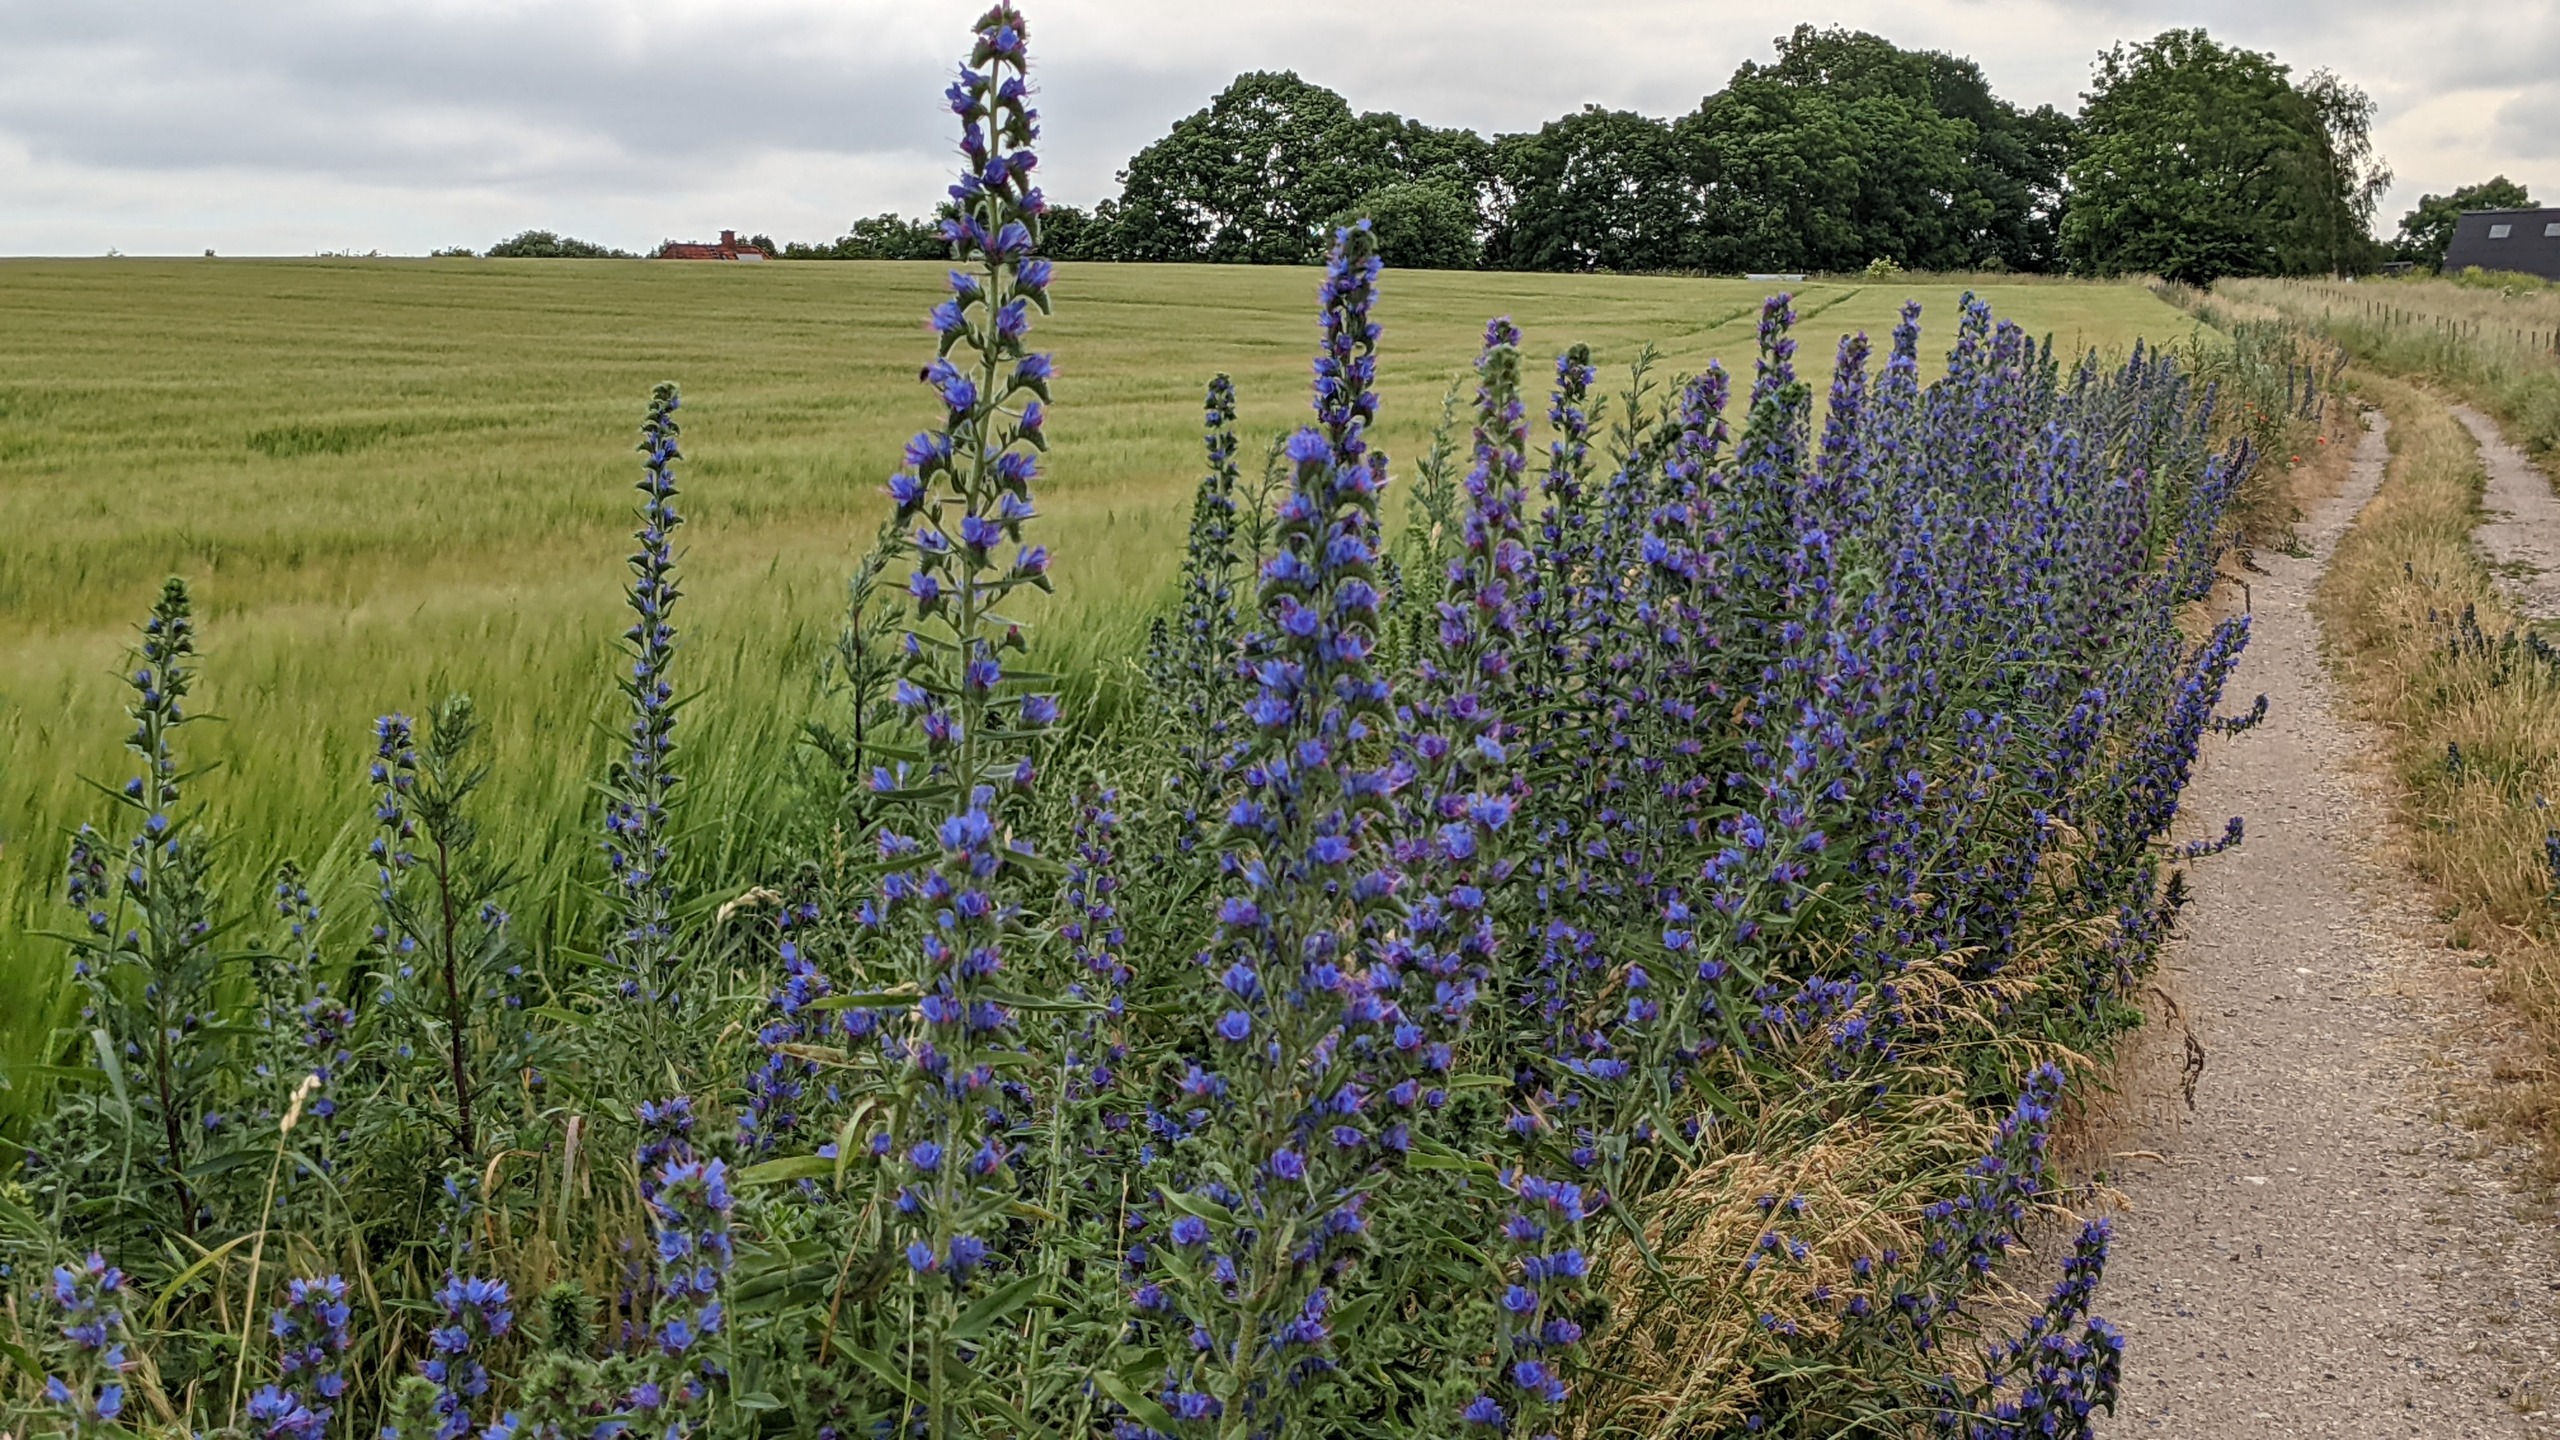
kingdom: Plantae
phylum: Tracheophyta
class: Magnoliopsida
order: Boraginales
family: Boraginaceae
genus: Echium
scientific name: Echium vulgare
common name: Slangehoved
